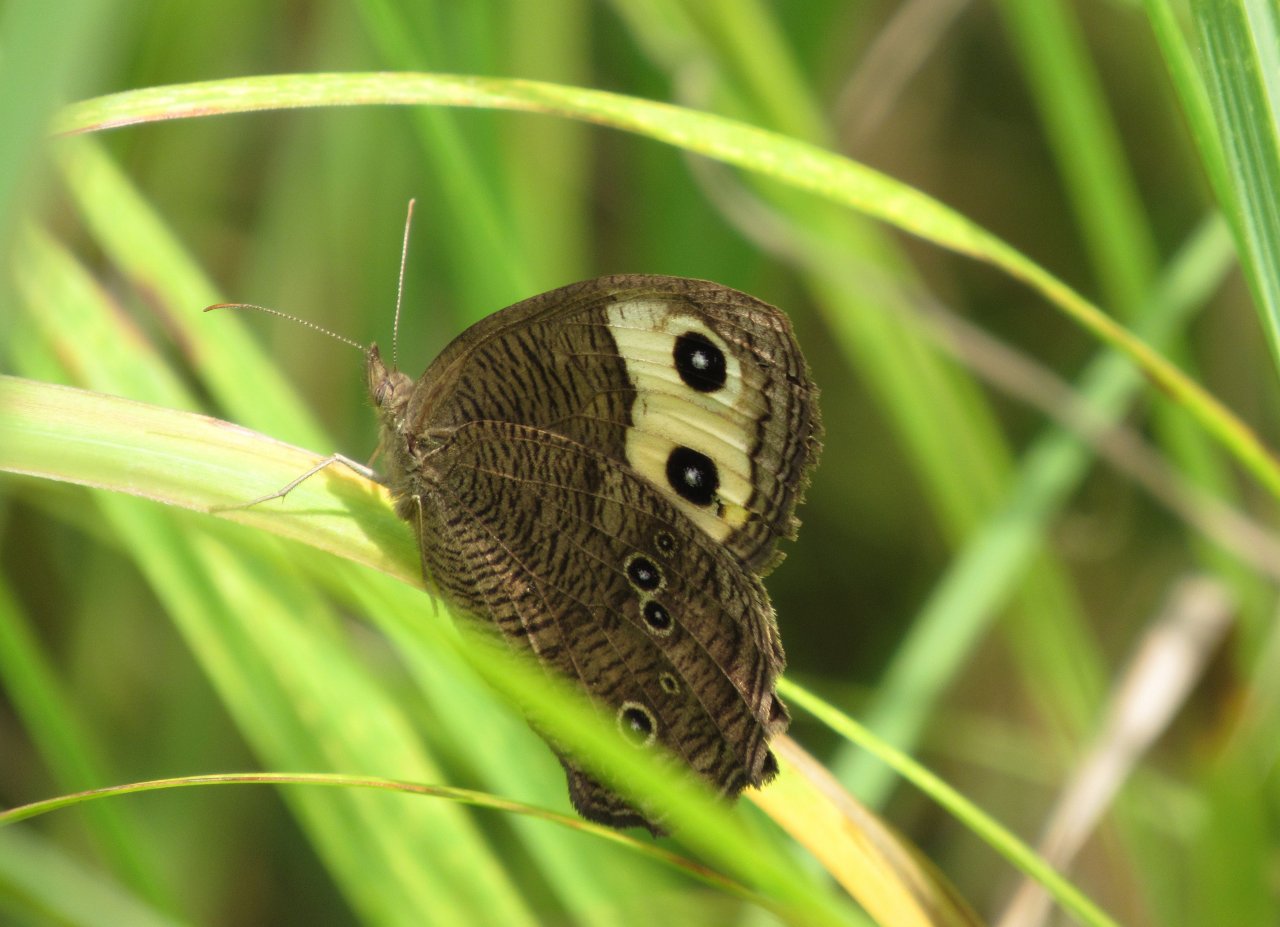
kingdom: Animalia
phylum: Arthropoda
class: Insecta
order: Lepidoptera
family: Nymphalidae
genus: Cercyonis
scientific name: Cercyonis pegala
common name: Common Wood-Nymph
